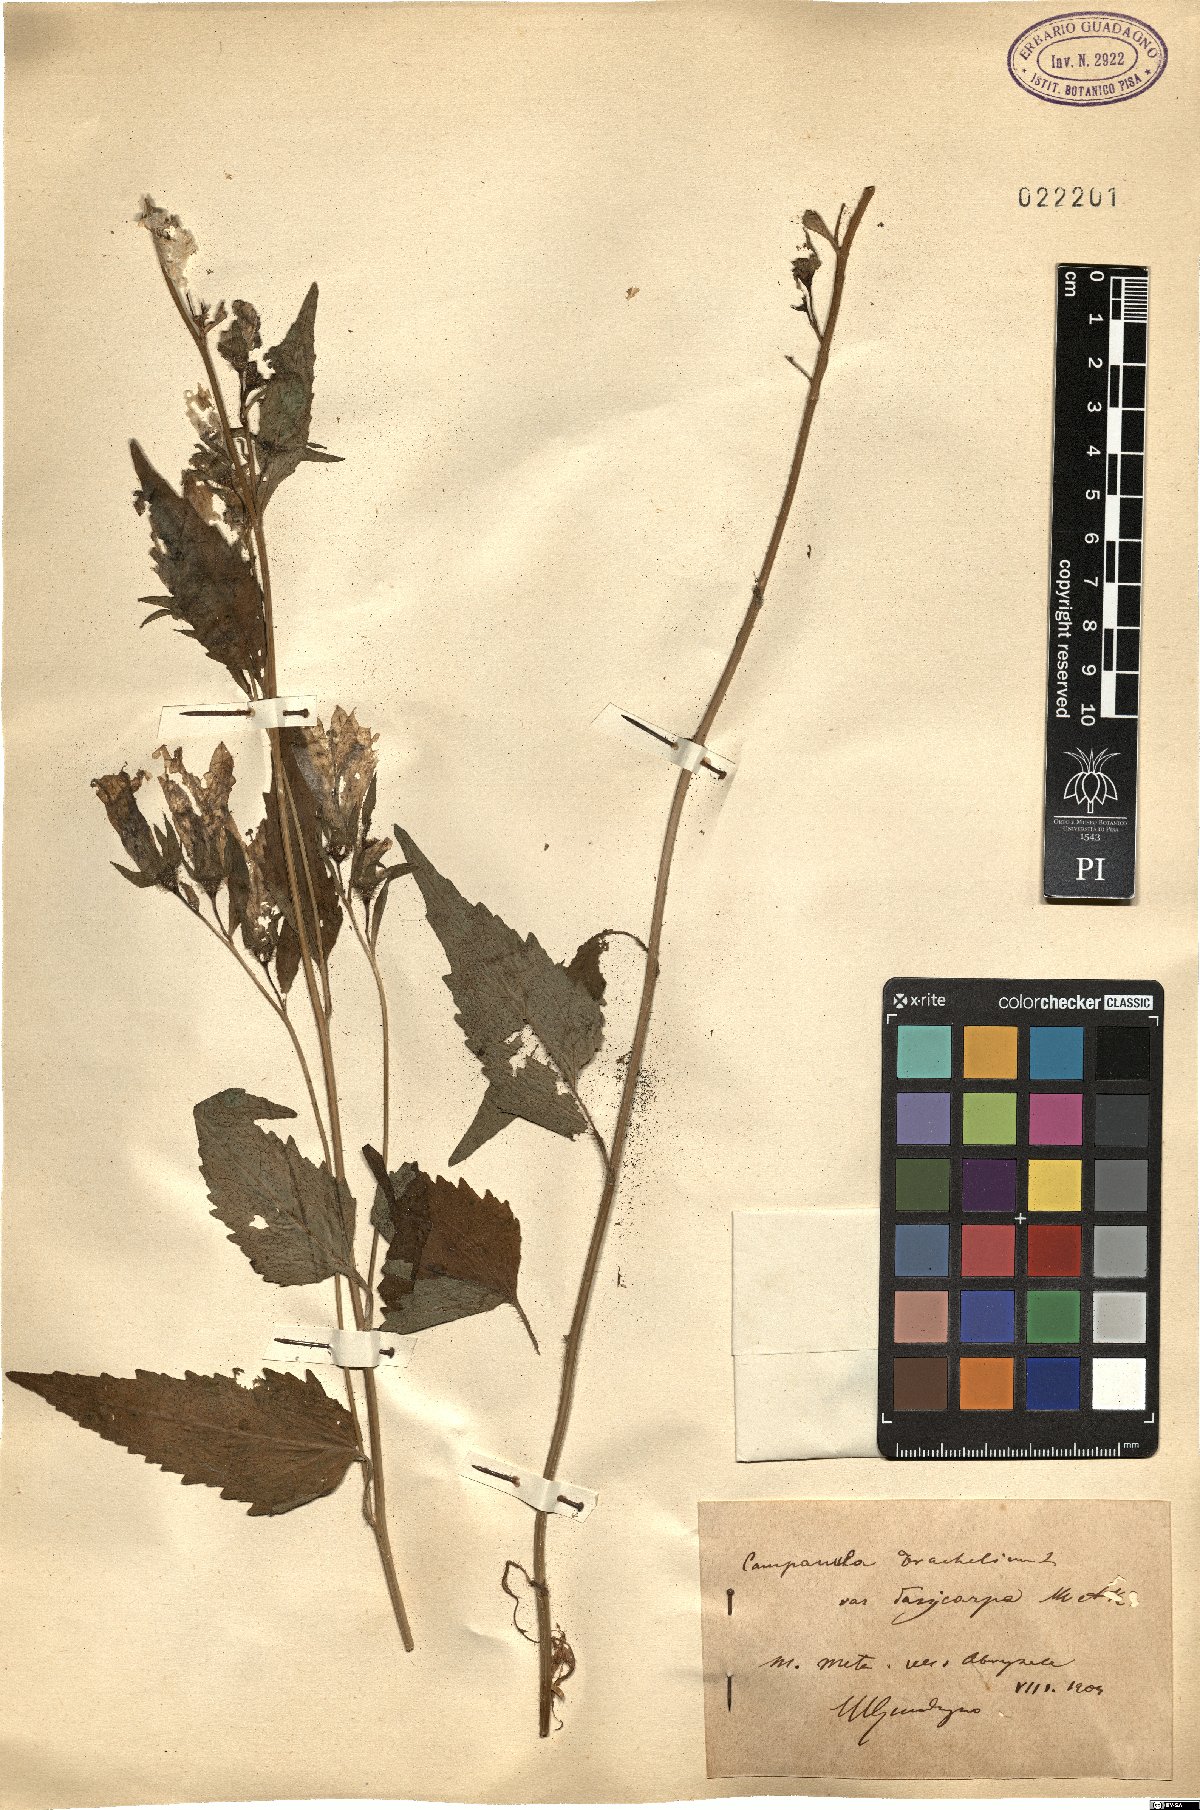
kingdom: Plantae
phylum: Tracheophyta
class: Magnoliopsida
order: Asterales
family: Campanulaceae
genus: Campanula
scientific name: Campanula trachelium
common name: Nettle-leaved bellflower
